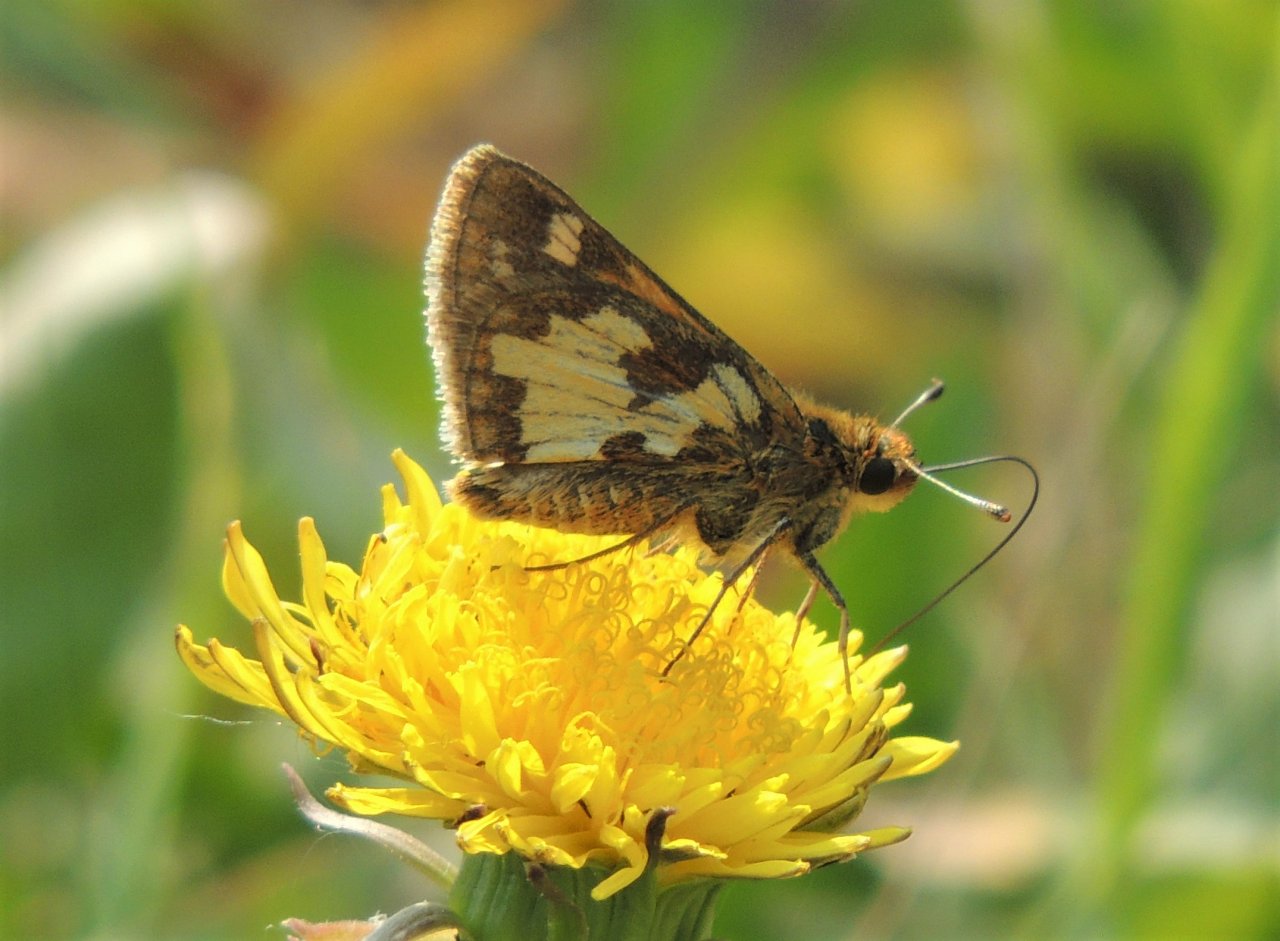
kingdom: Animalia
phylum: Arthropoda
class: Insecta
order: Lepidoptera
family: Hesperiidae
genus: Polites
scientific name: Polites coras
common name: Peck's Skipper
